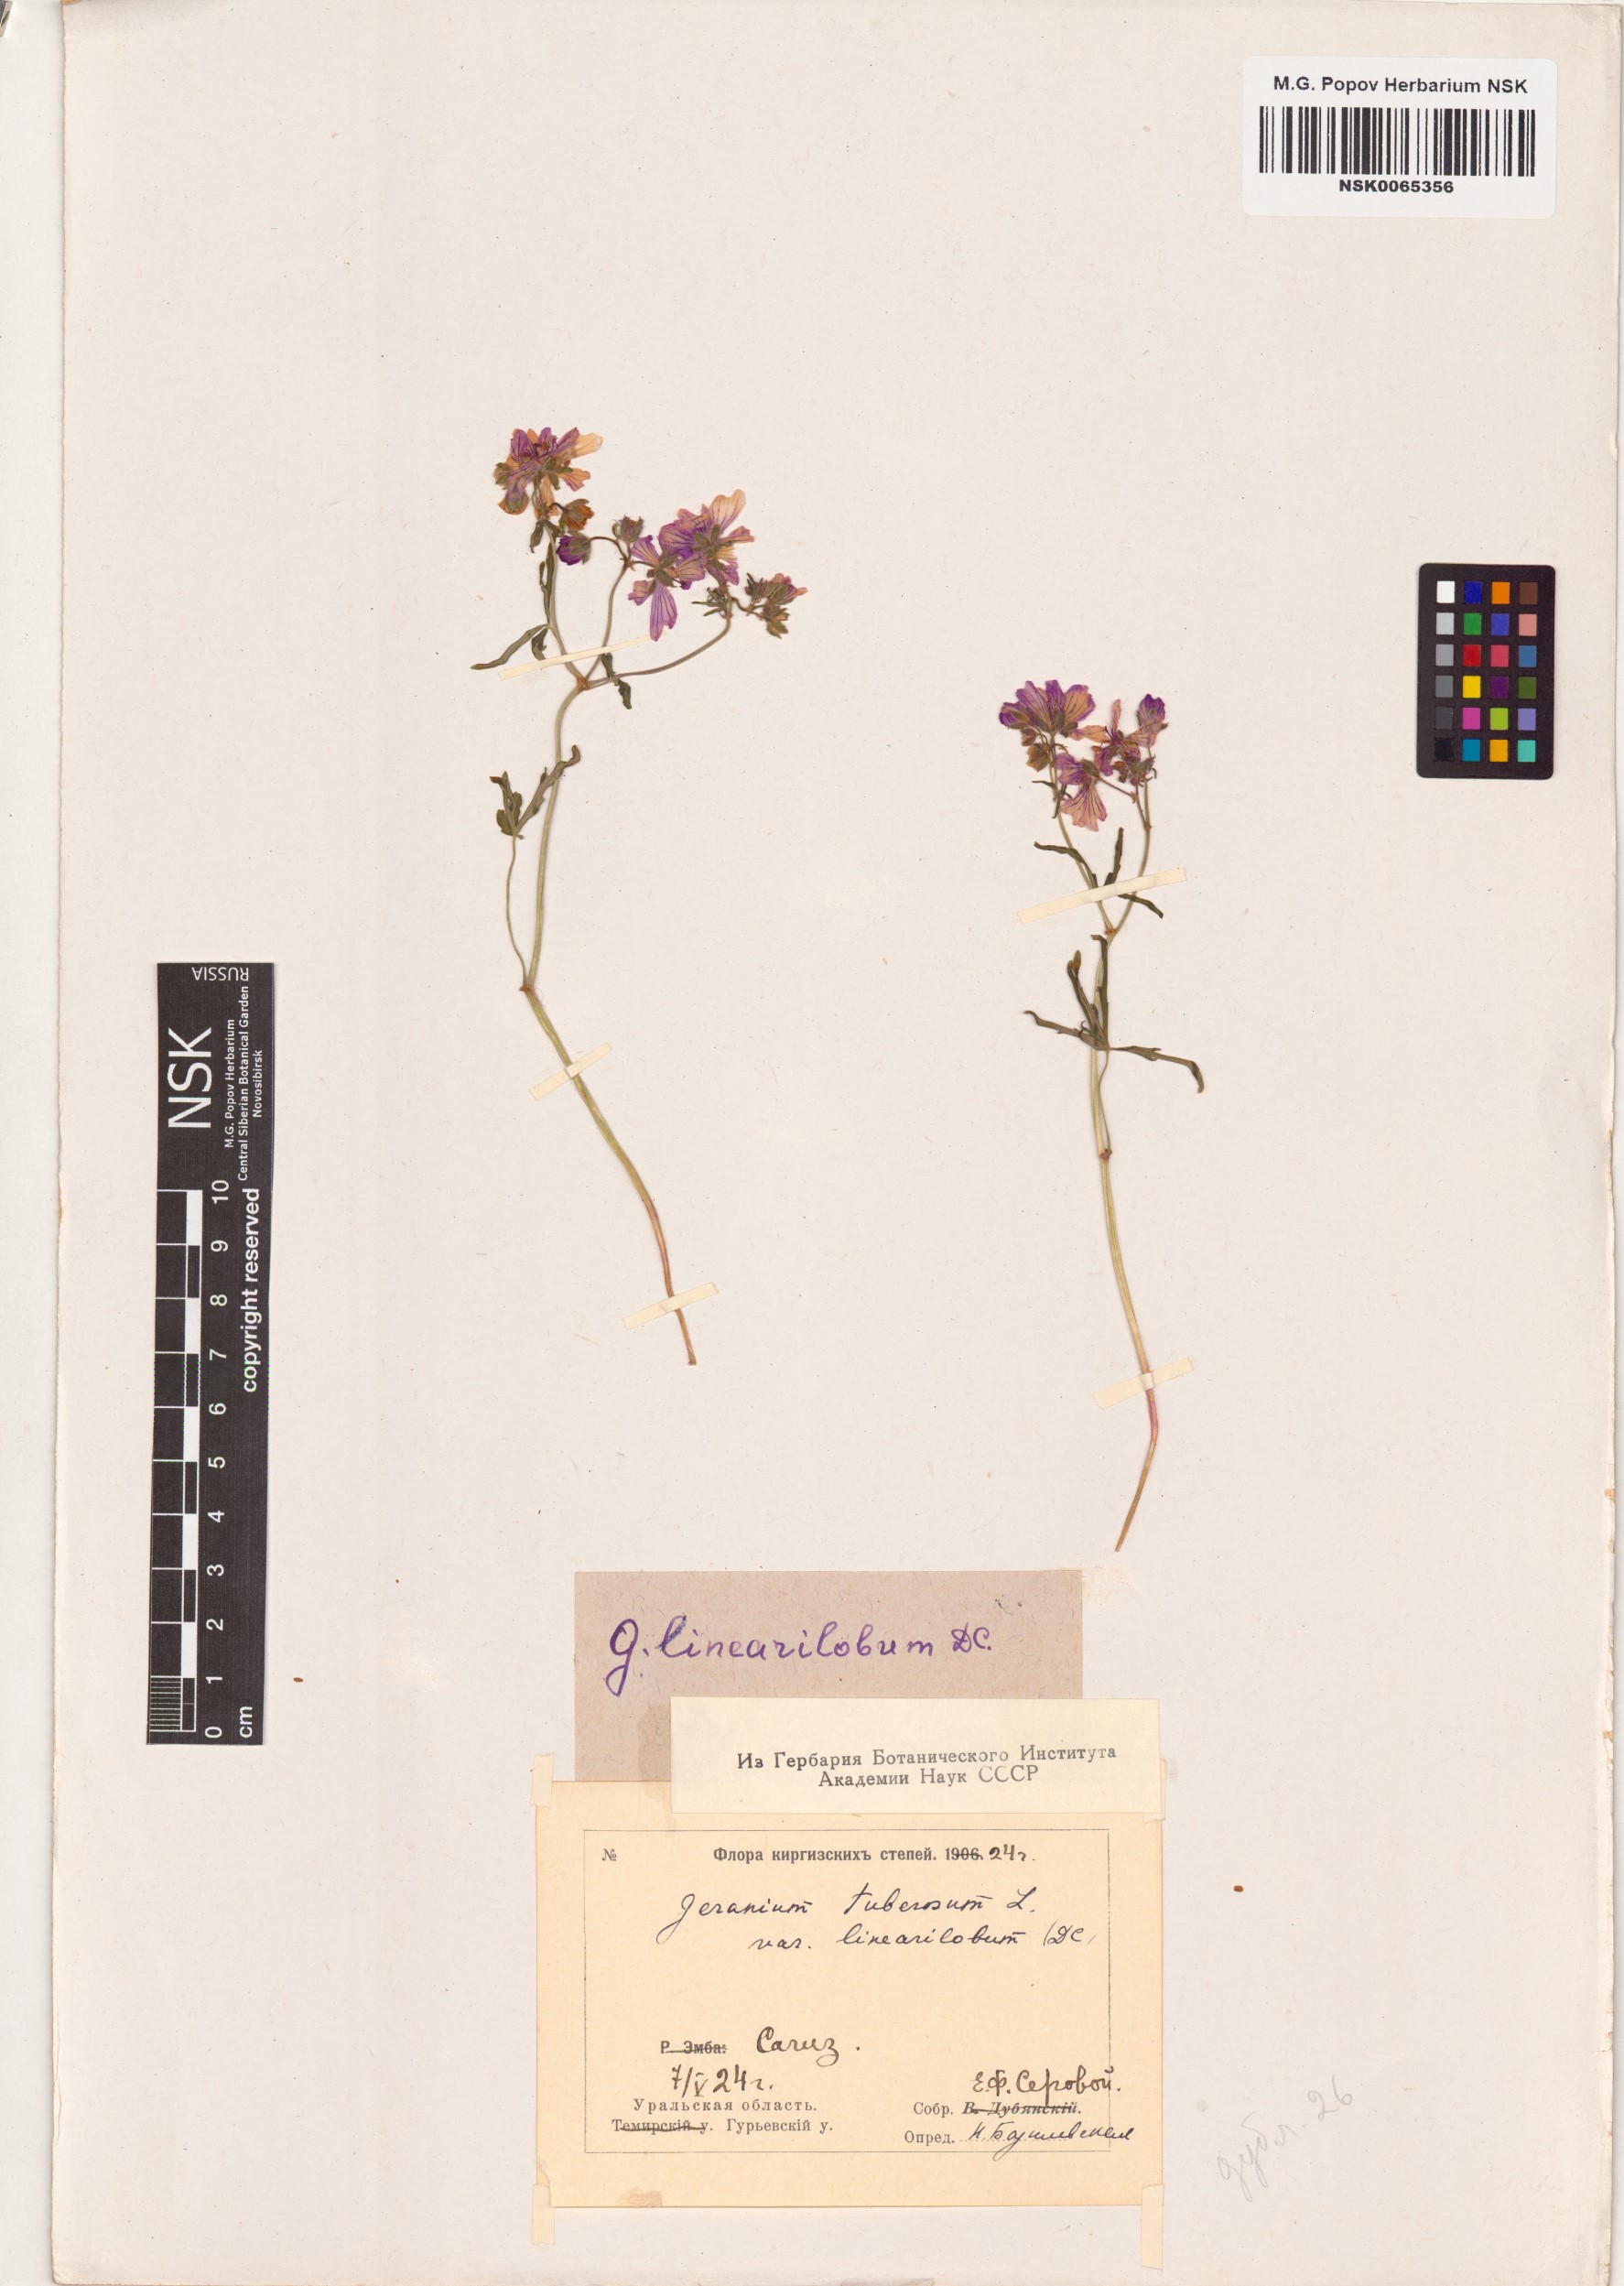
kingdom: Plantae
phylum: Tracheophyta
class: Magnoliopsida
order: Geraniales
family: Geraniaceae
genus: Geranium
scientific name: Geranium linearilobum
